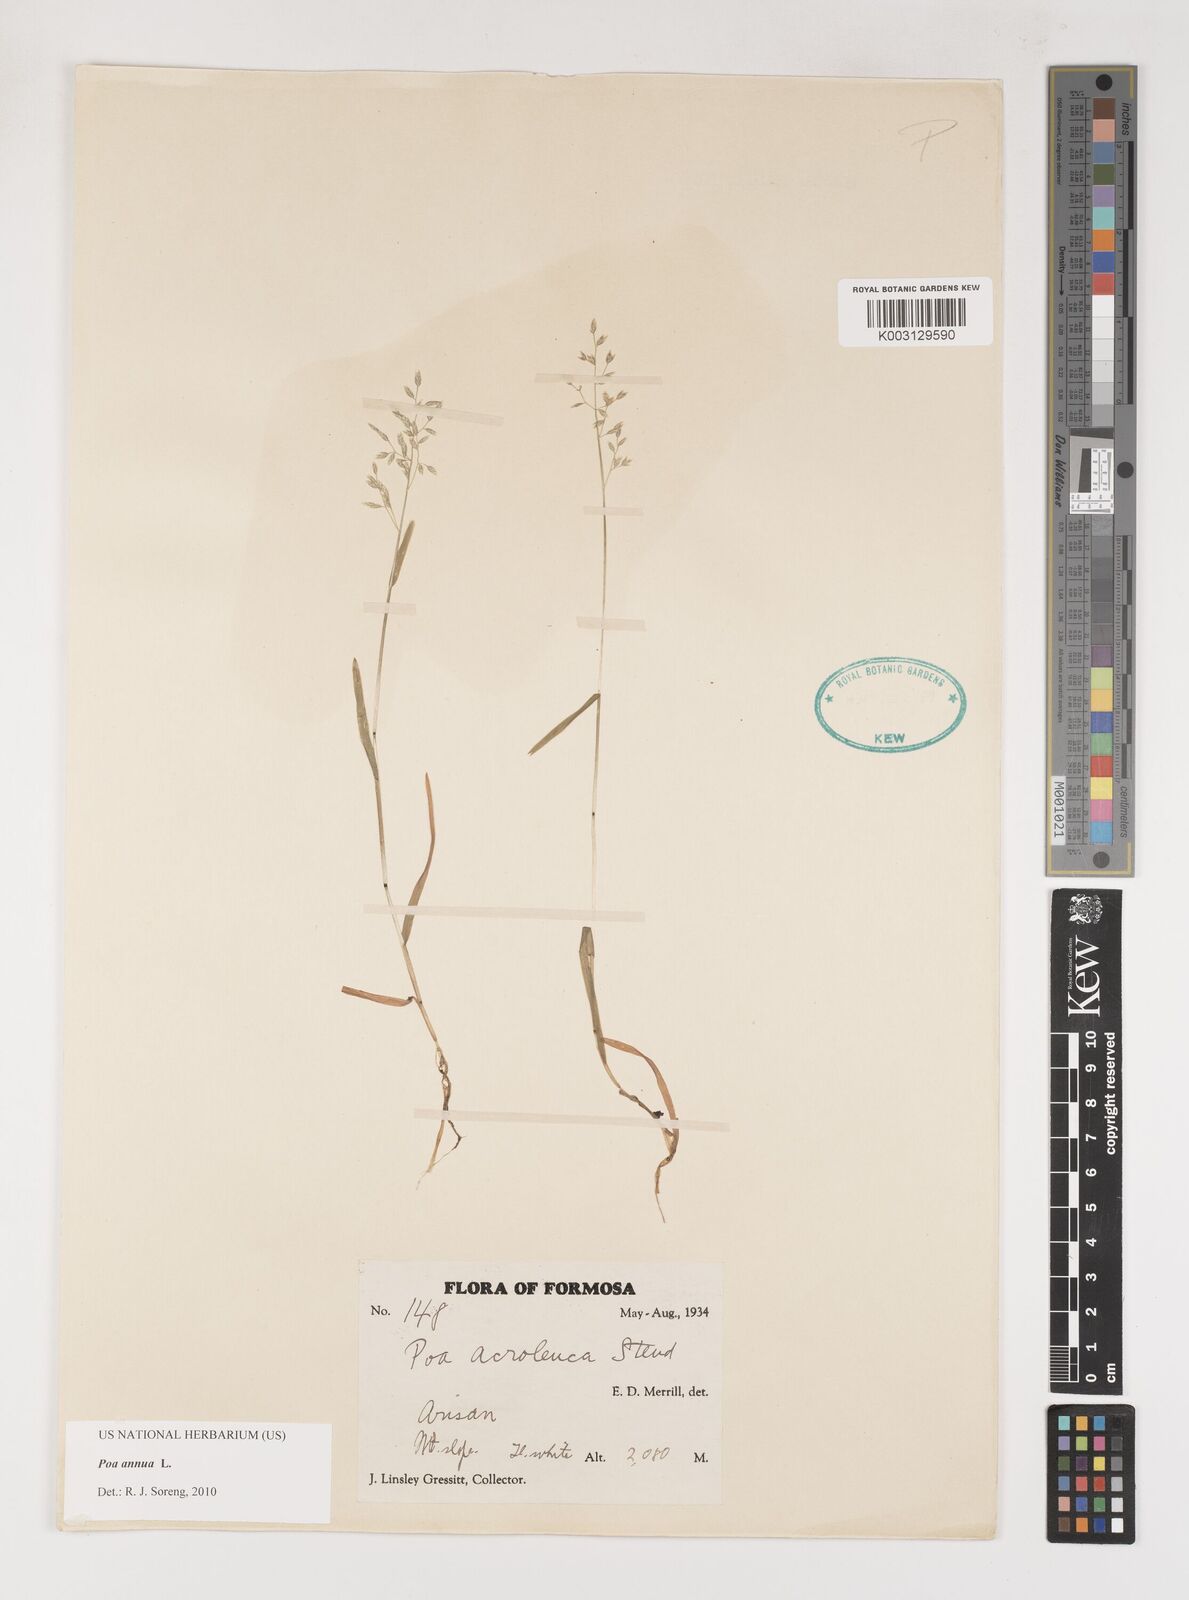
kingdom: Plantae
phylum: Tracheophyta
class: Liliopsida
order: Poales
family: Poaceae
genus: Poa
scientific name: Poa annua
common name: Annual bluegrass
